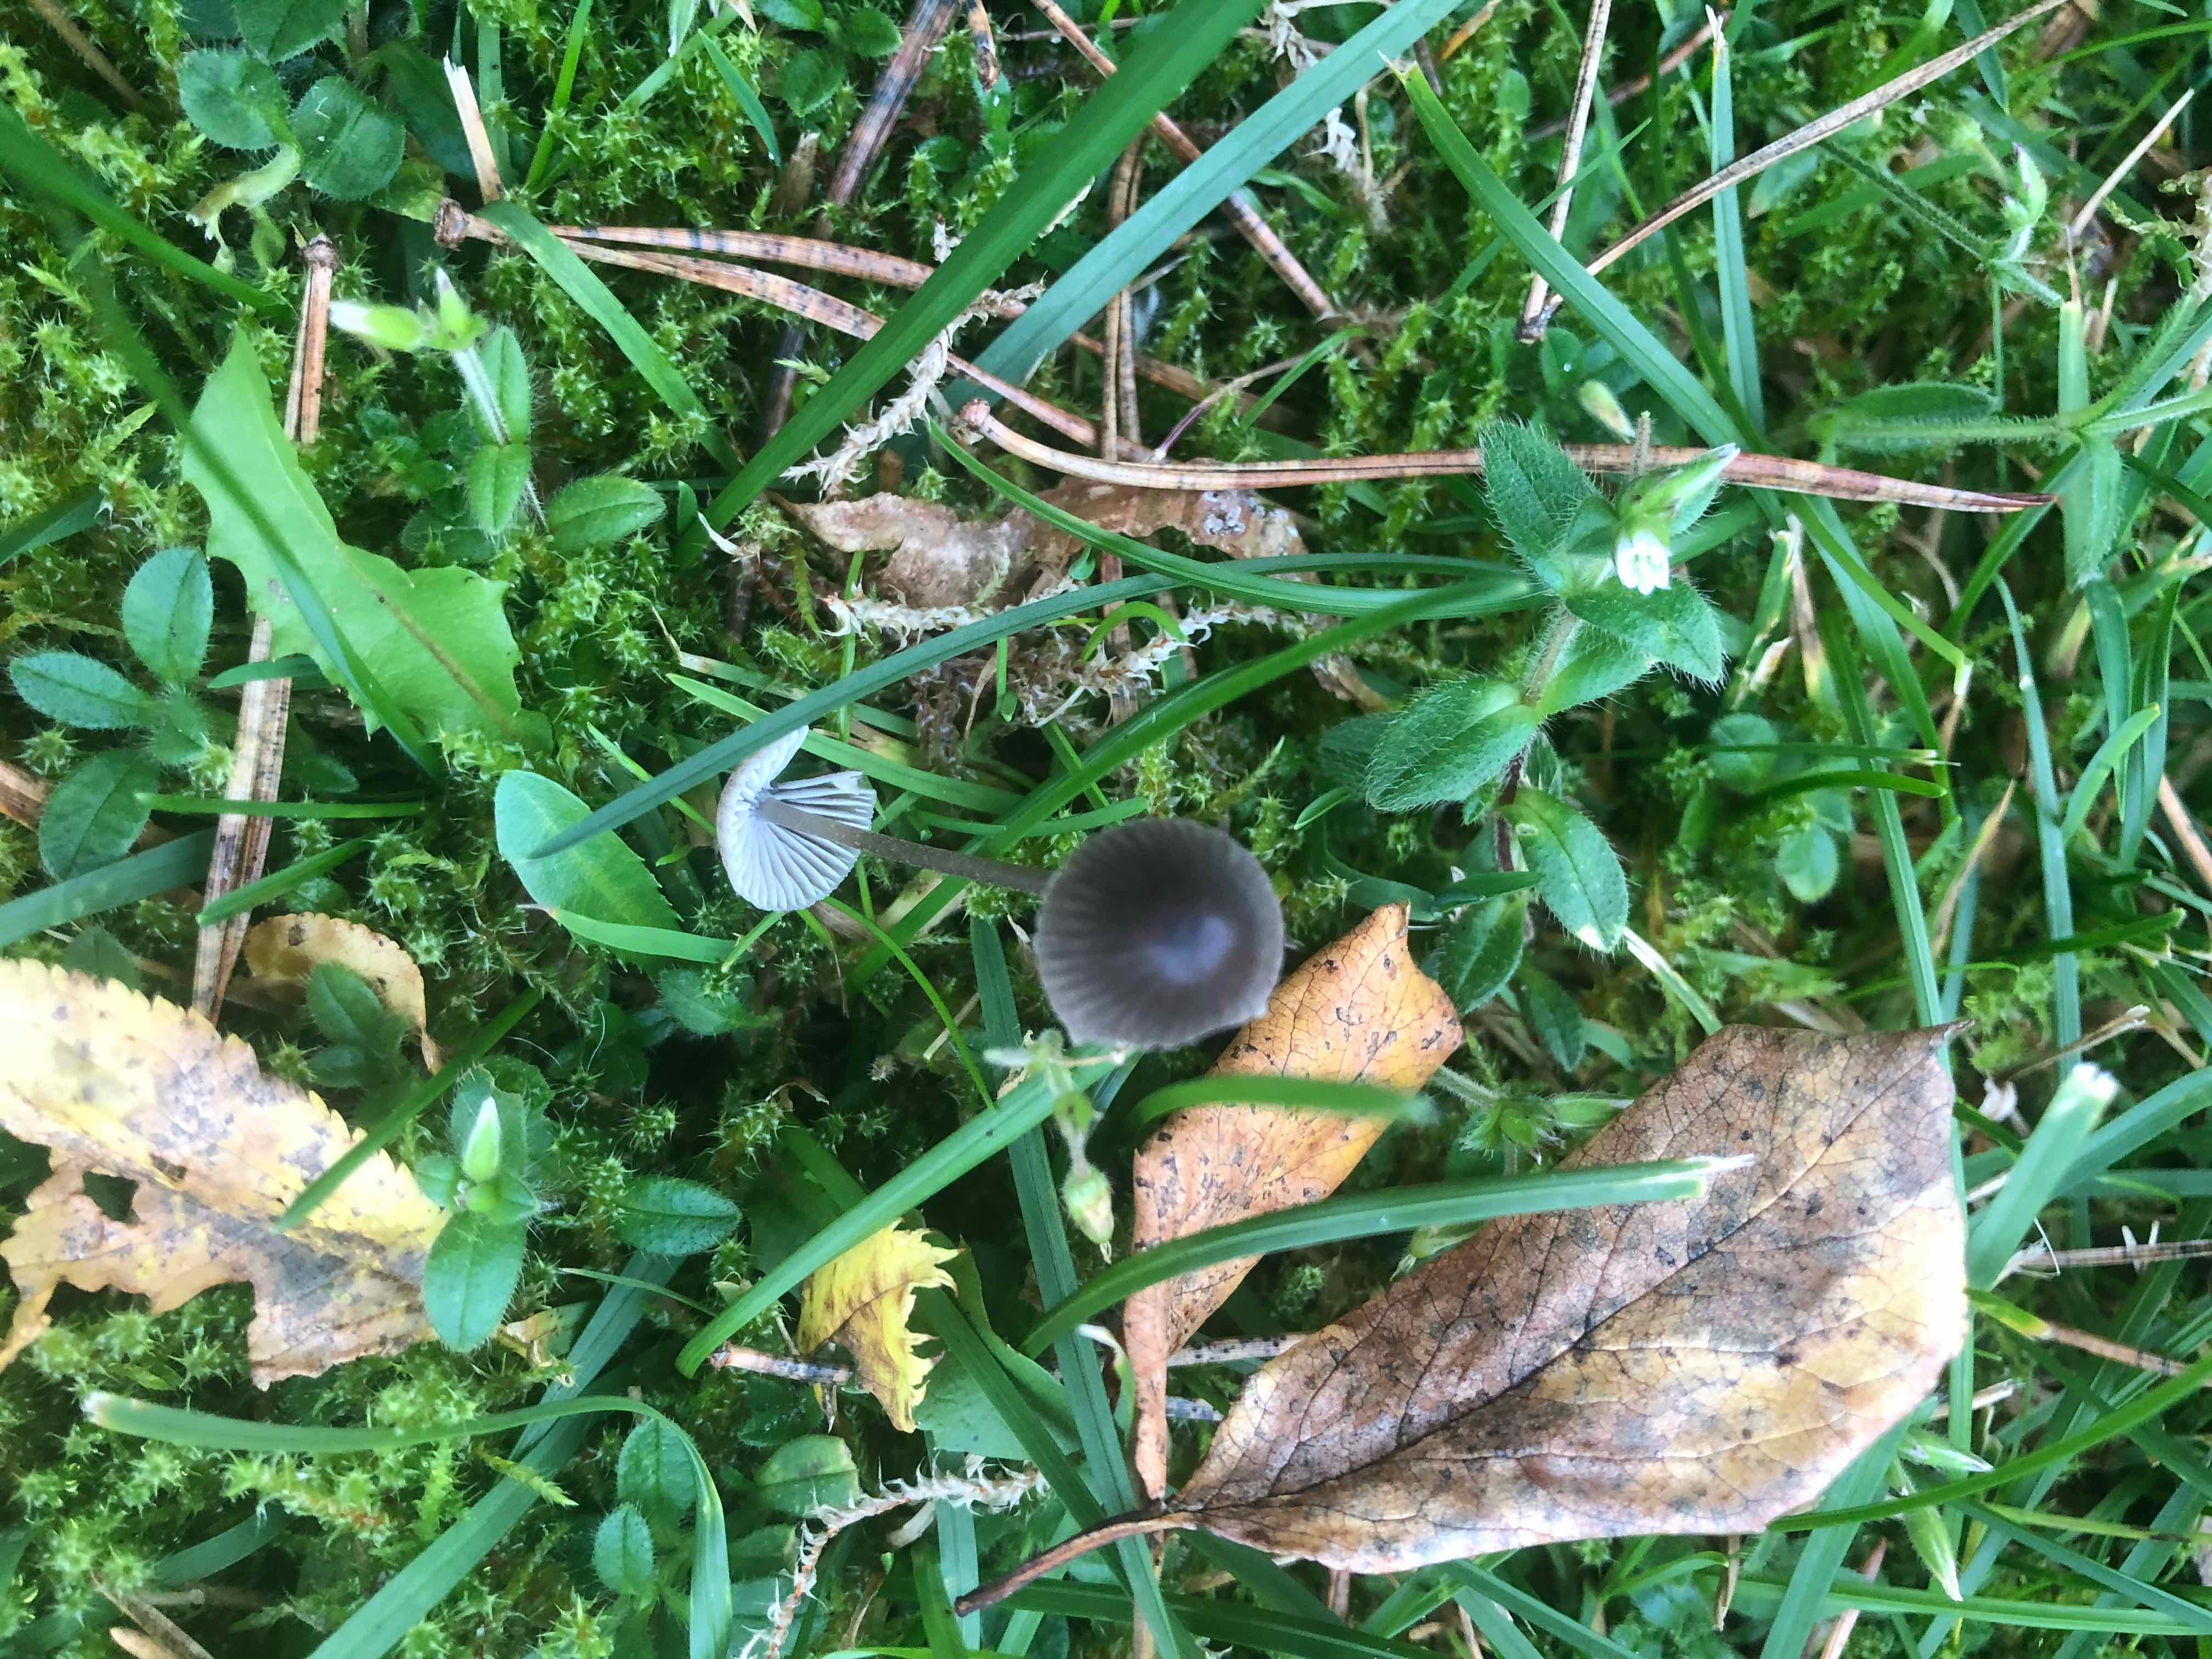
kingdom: Fungi
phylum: Basidiomycota
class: Agaricomycetes
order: Agaricales
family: Mycenaceae
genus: Mycena
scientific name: Mycena
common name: huesvamp
